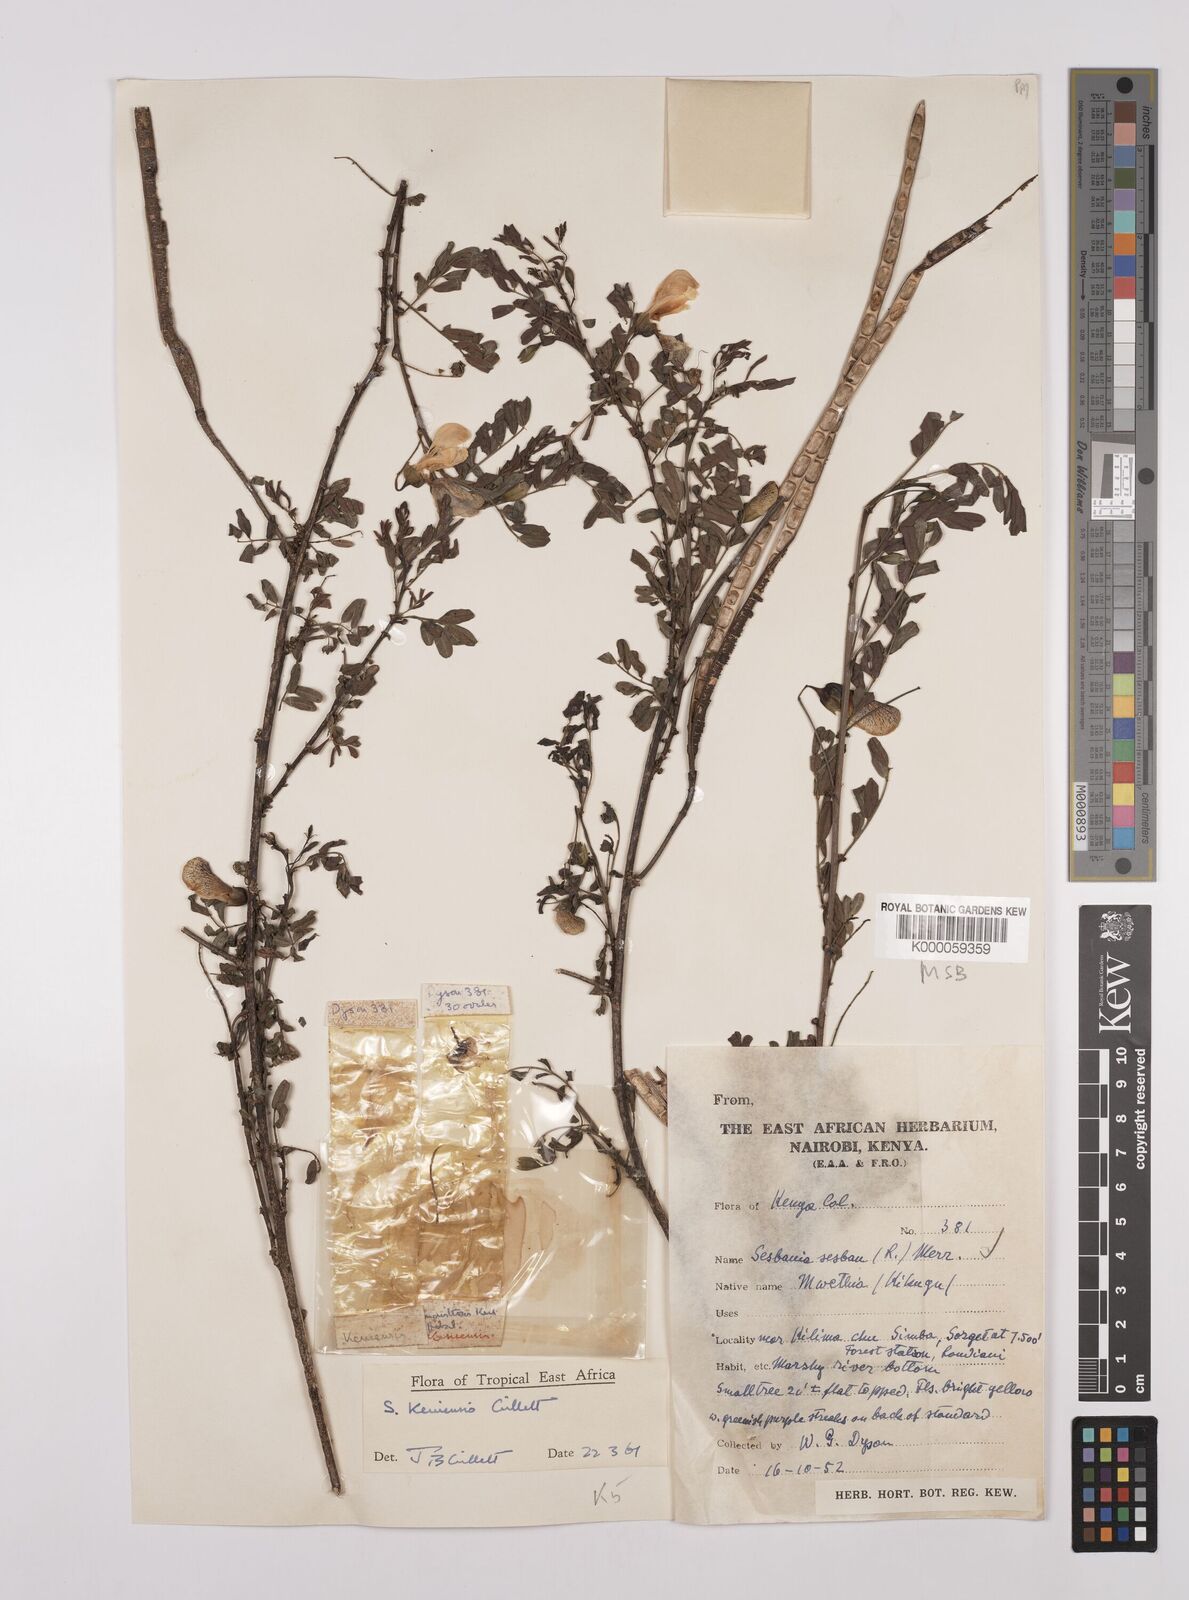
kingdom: Plantae
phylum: Tracheophyta
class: Magnoliopsida
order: Fabales
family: Fabaceae
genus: Sesbania
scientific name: Sesbania keniensis
